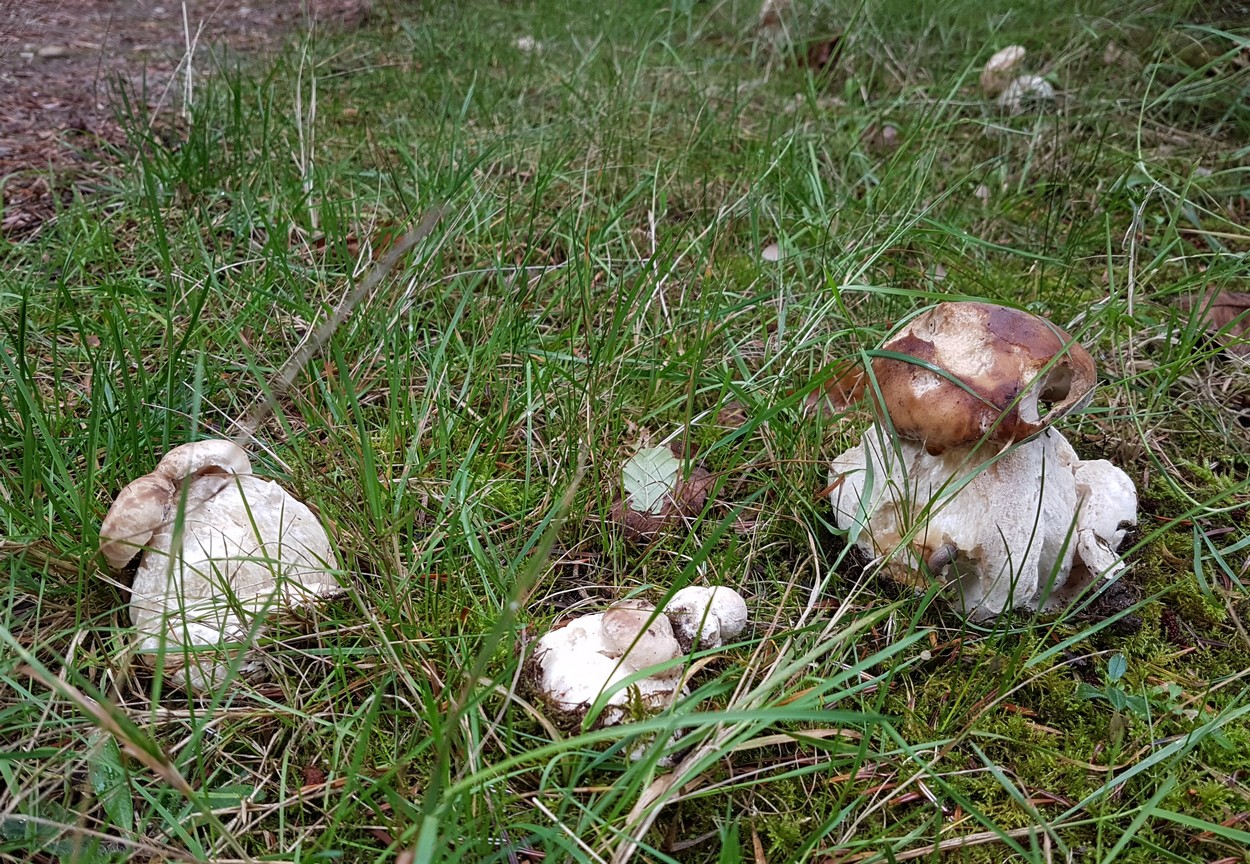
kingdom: Fungi
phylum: Ascomycota
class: Sordariomycetes
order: Hypocreales
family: Hypocreaceae
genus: Hypomyces
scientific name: Hypomyces chrysospermus
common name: gulskimmel-snylteskorpe
